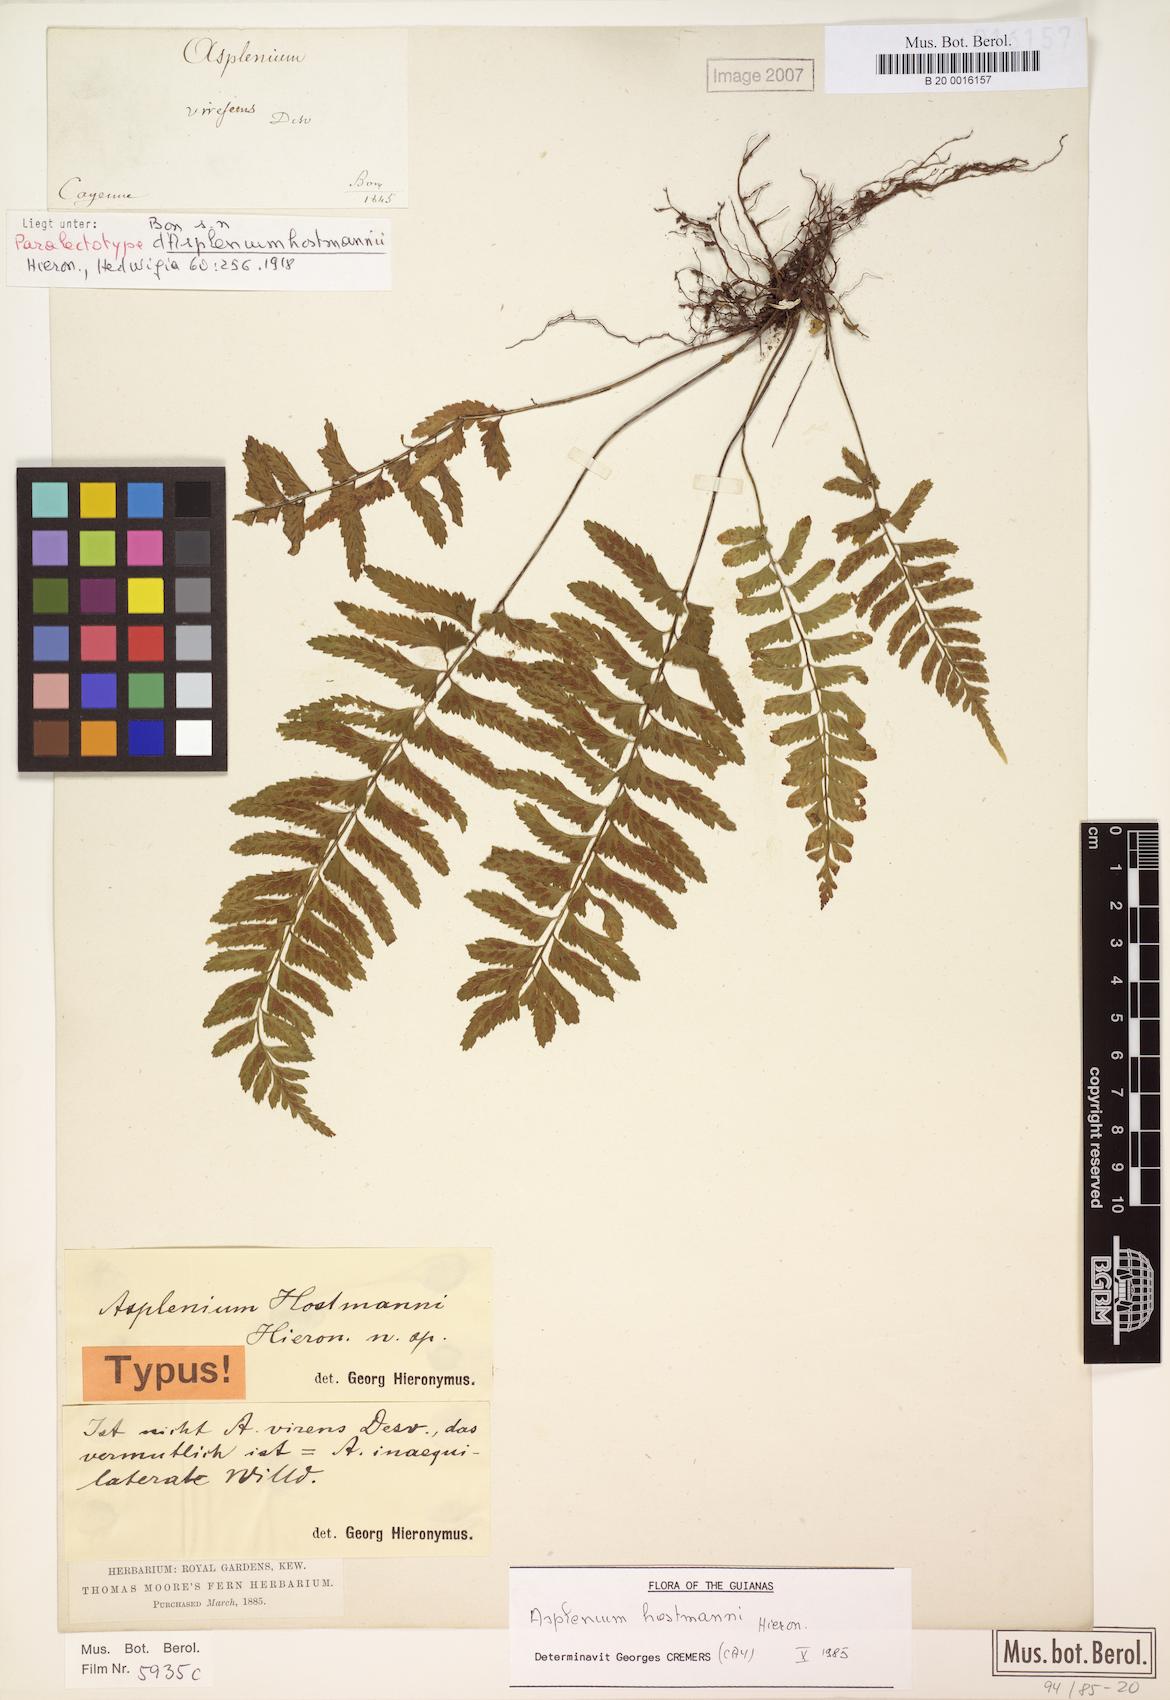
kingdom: Plantae
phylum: Tracheophyta
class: Polypodiopsida
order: Polypodiales
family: Aspleniaceae
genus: Asplenium
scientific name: Asplenium hostmannii
